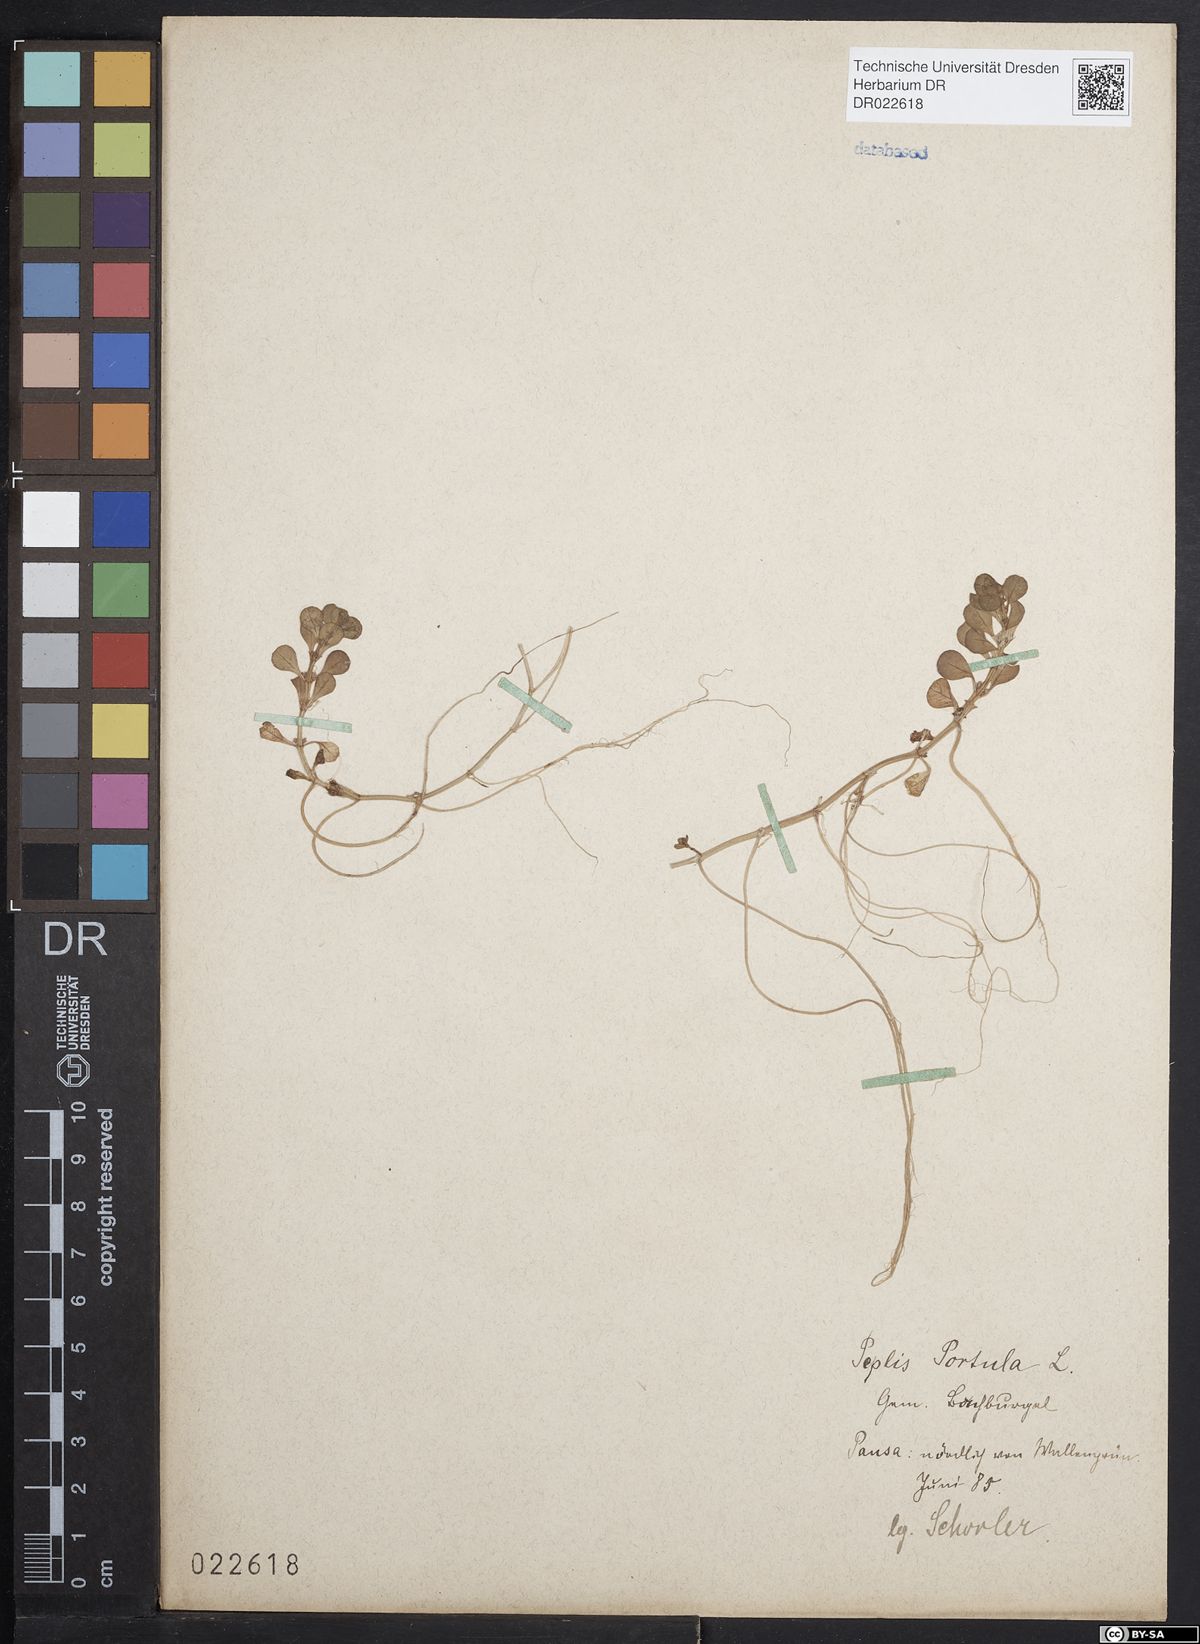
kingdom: Plantae
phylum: Tracheophyta
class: Magnoliopsida
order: Myrtales
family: Lythraceae
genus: Lythrum
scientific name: Lythrum portula
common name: Water purslane
